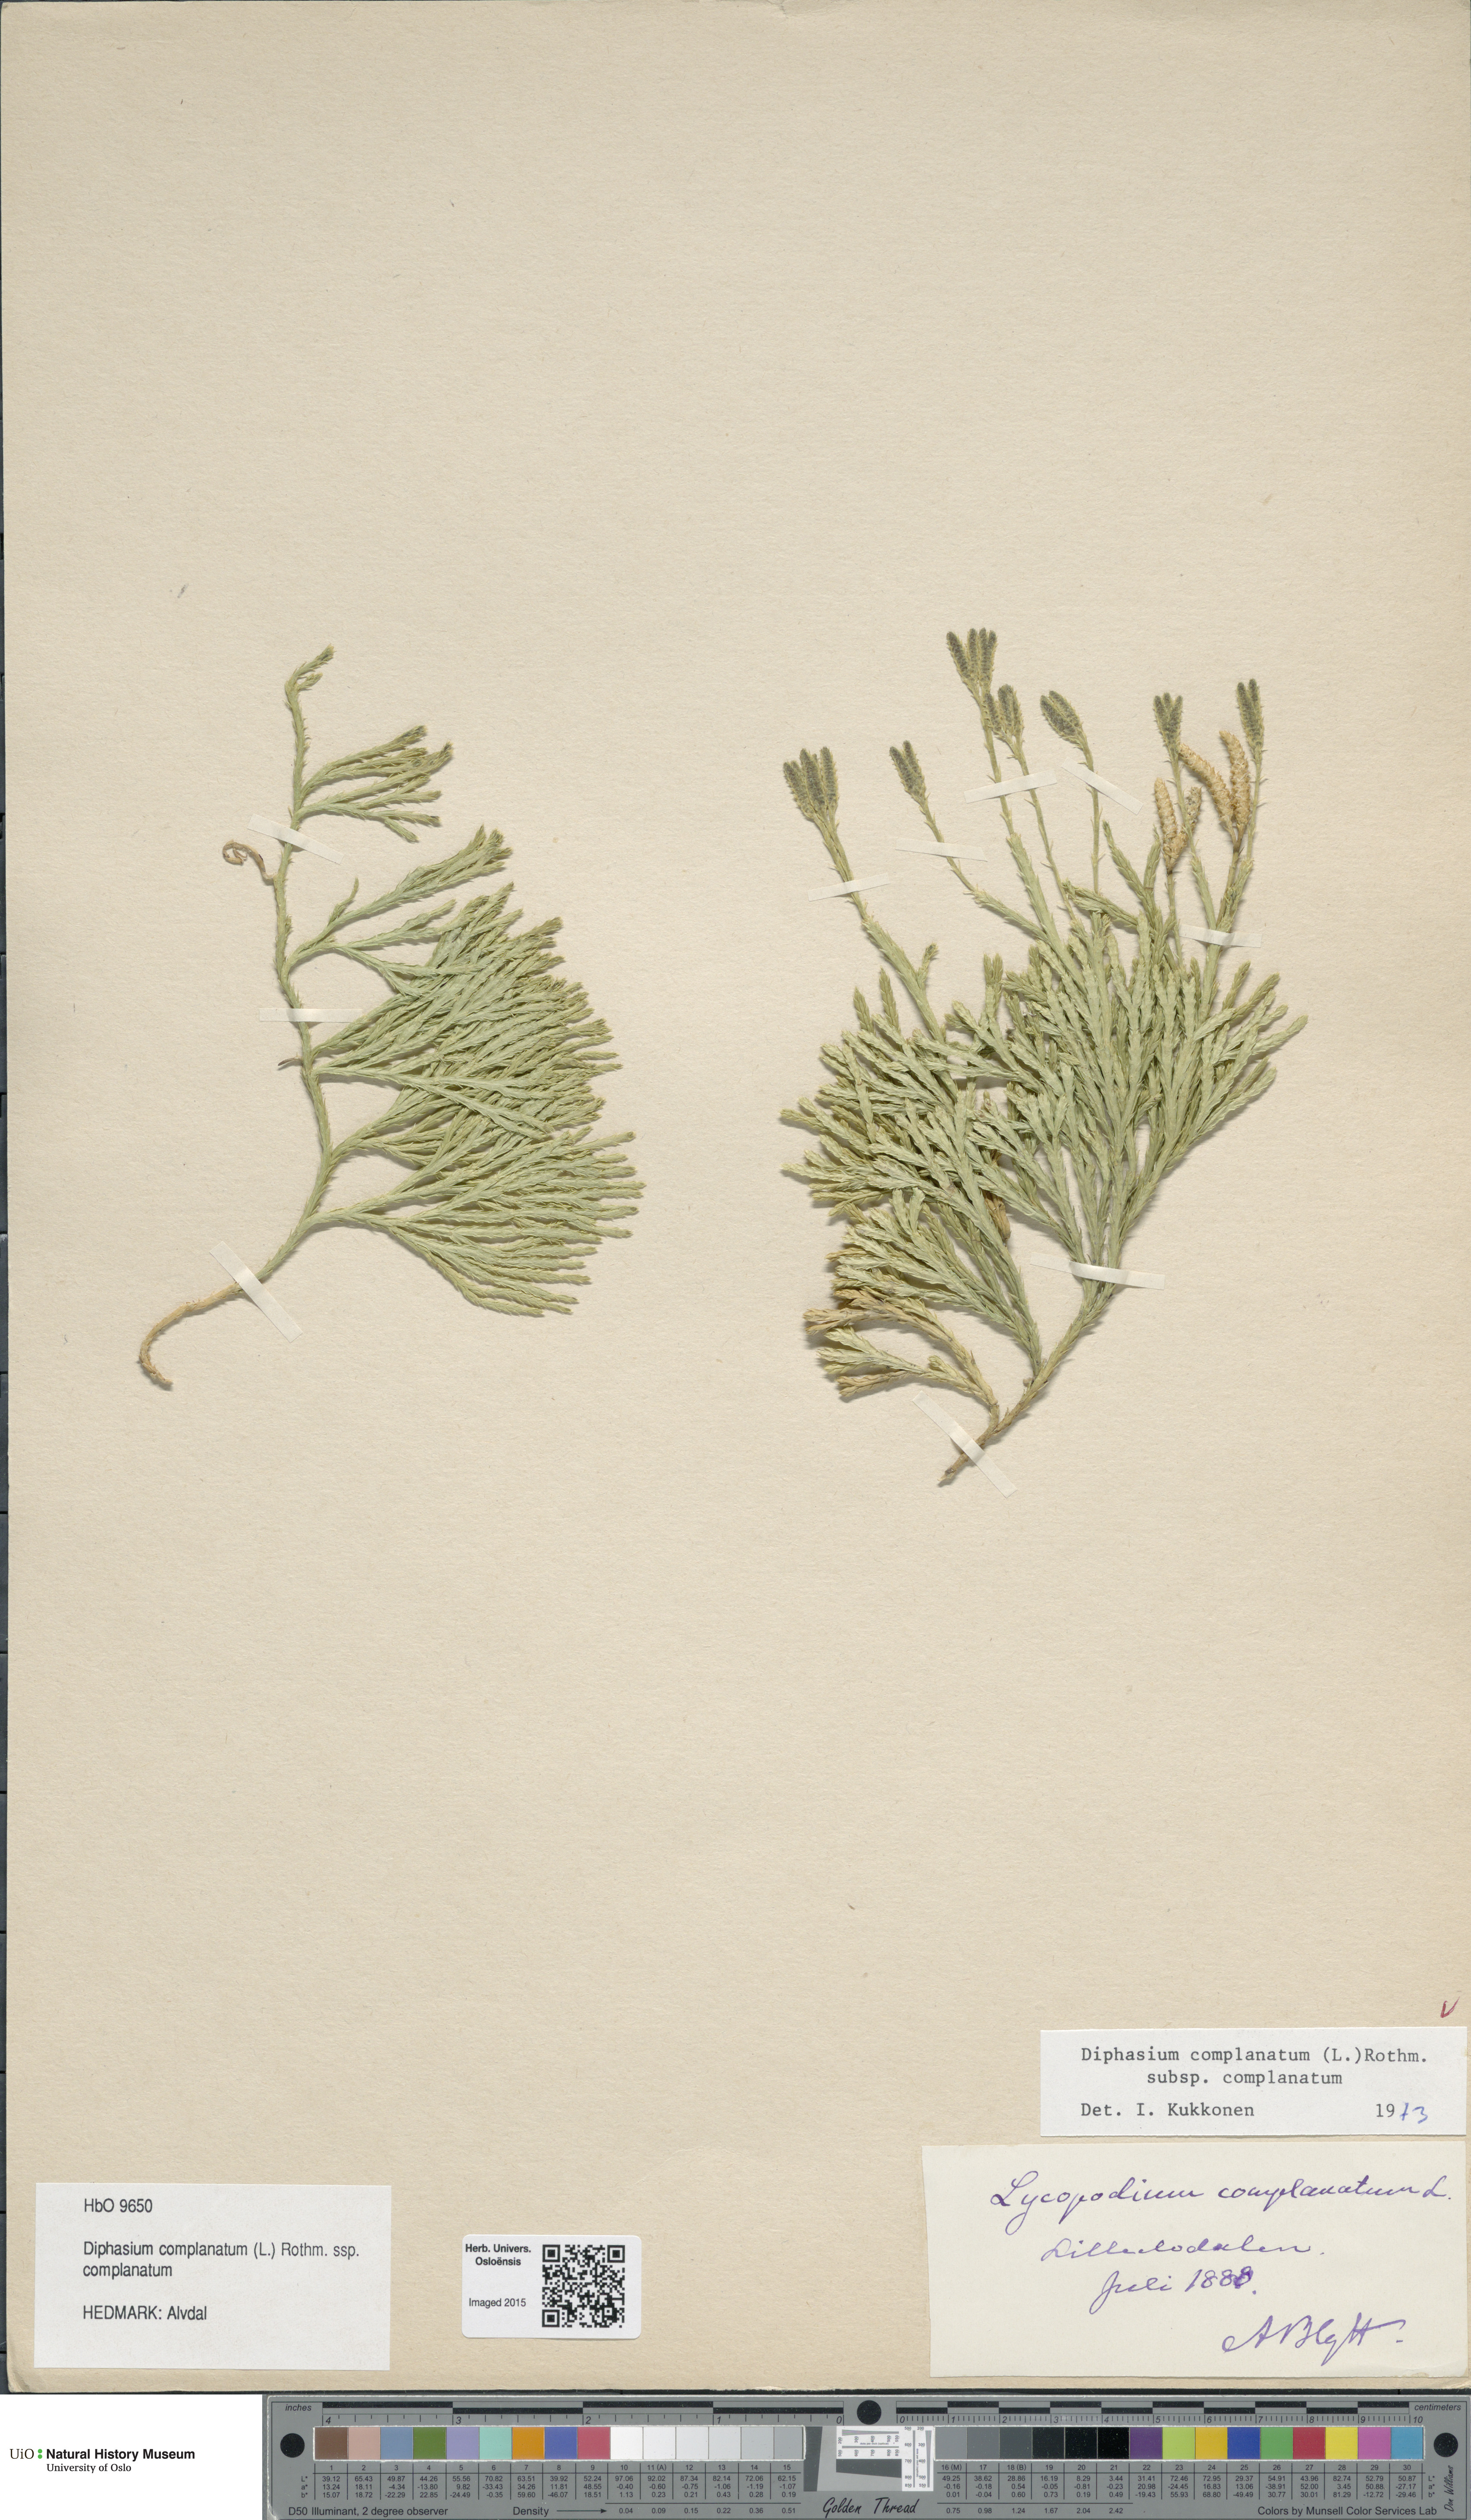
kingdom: Plantae
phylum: Tracheophyta
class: Lycopodiopsida
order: Lycopodiales
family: Lycopodiaceae
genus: Diphasiastrum
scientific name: Diphasiastrum complanatum
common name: Northern running-pine
